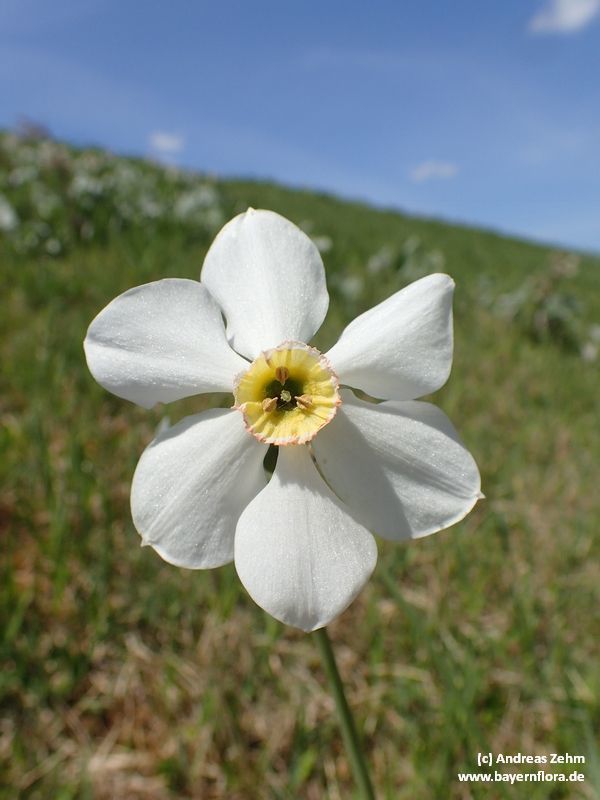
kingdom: Plantae
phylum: Tracheophyta
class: Liliopsida
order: Asparagales
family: Amaryllidaceae
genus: Narcissus
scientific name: Narcissus
